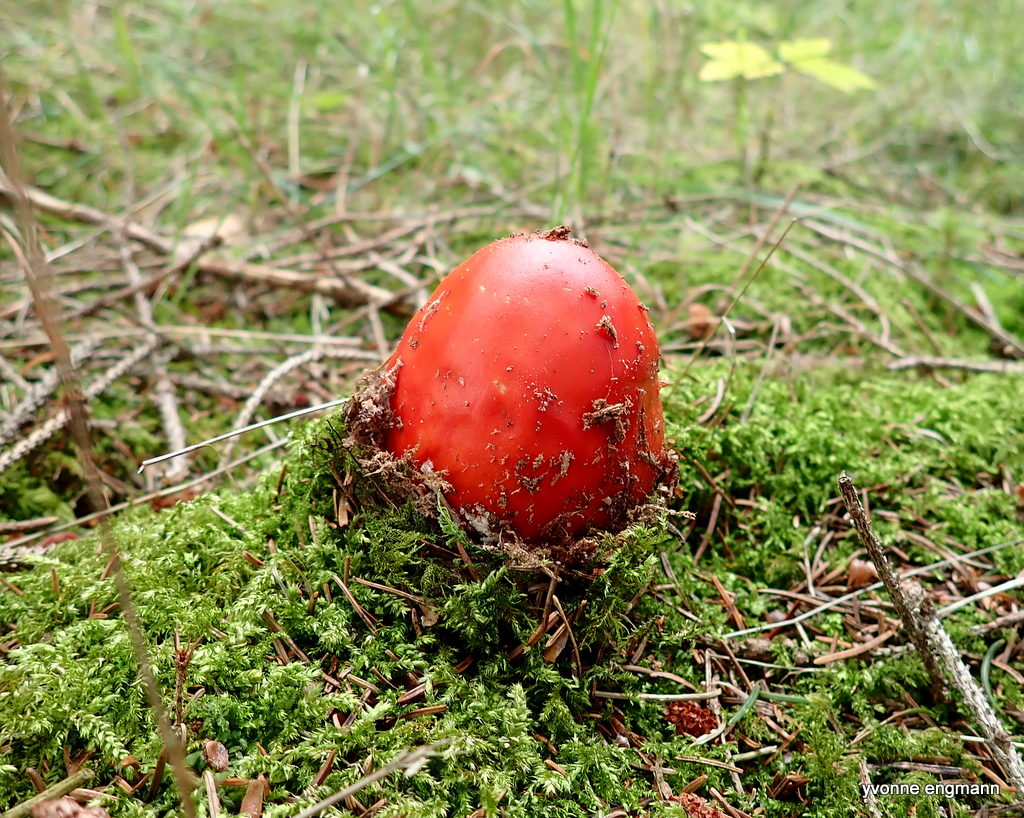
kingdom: Fungi
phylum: Basidiomycota
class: Agaricomycetes
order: Agaricales
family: Amanitaceae
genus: Amanita
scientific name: Amanita muscaria
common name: rød fluesvamp
